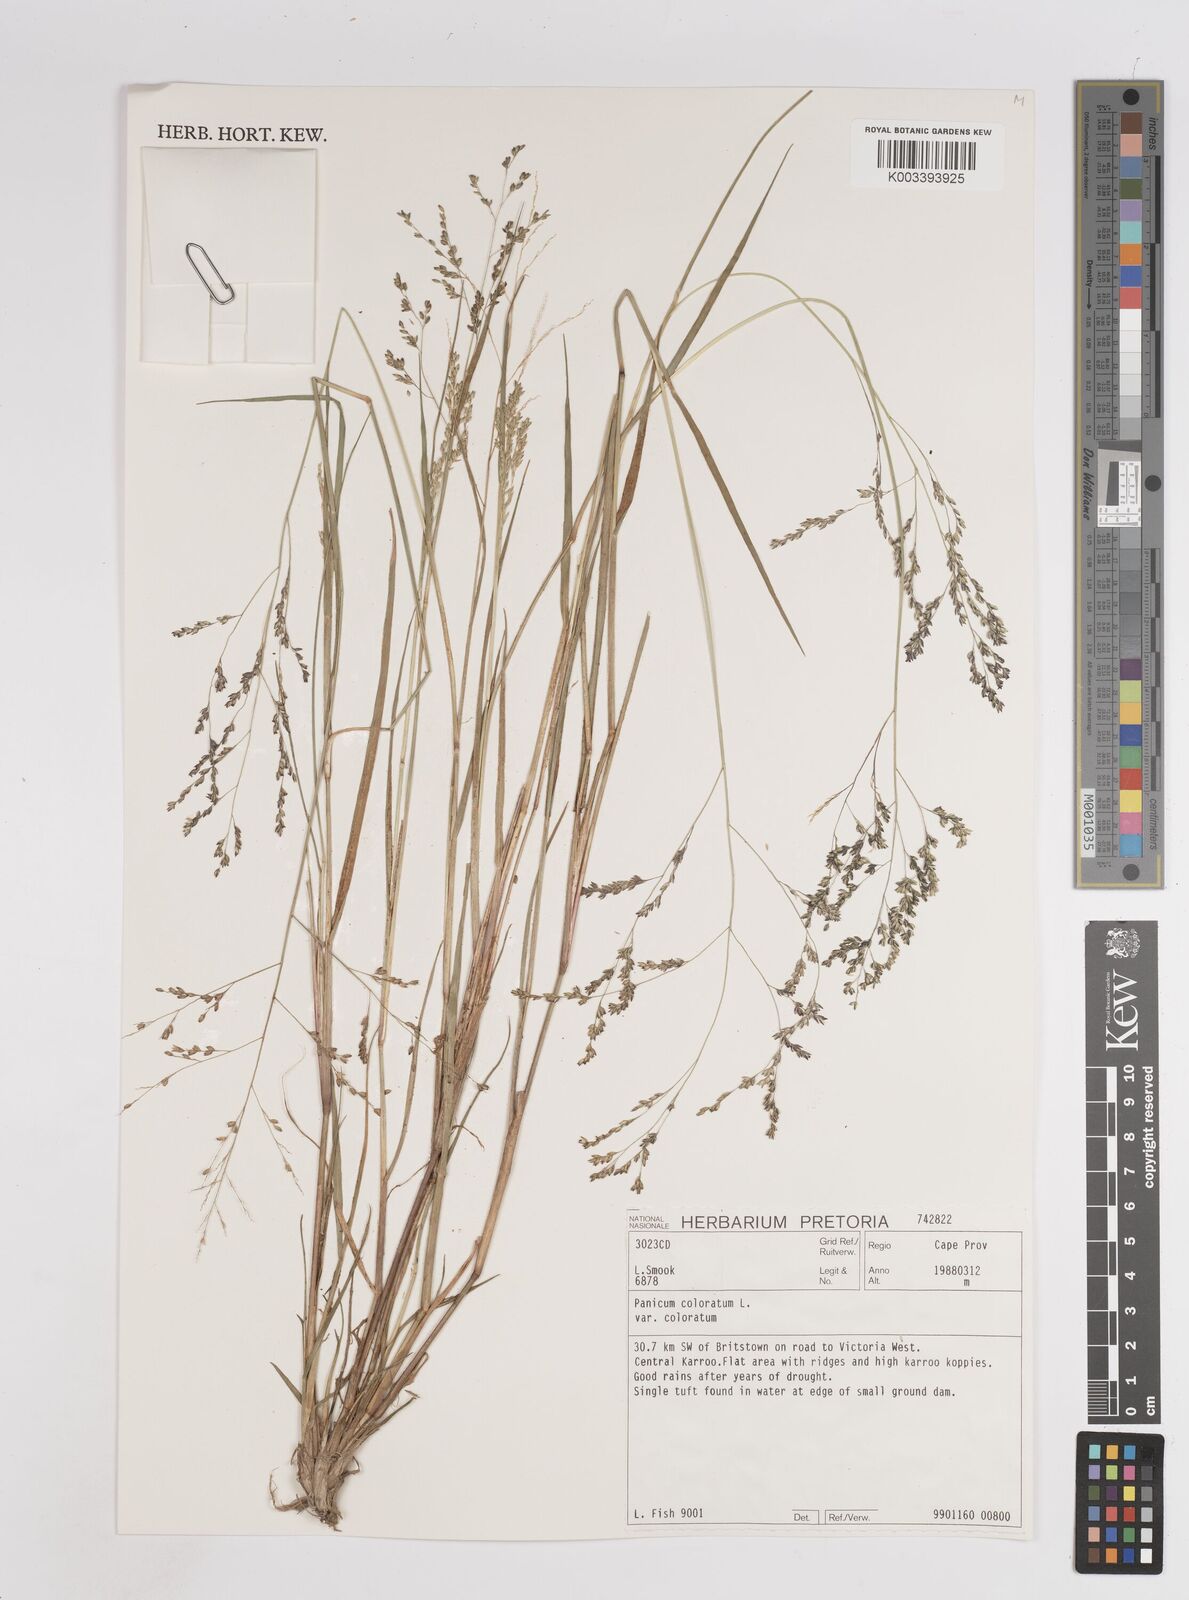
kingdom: Plantae
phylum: Tracheophyta
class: Liliopsida
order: Poales
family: Poaceae
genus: Panicum
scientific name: Panicum
